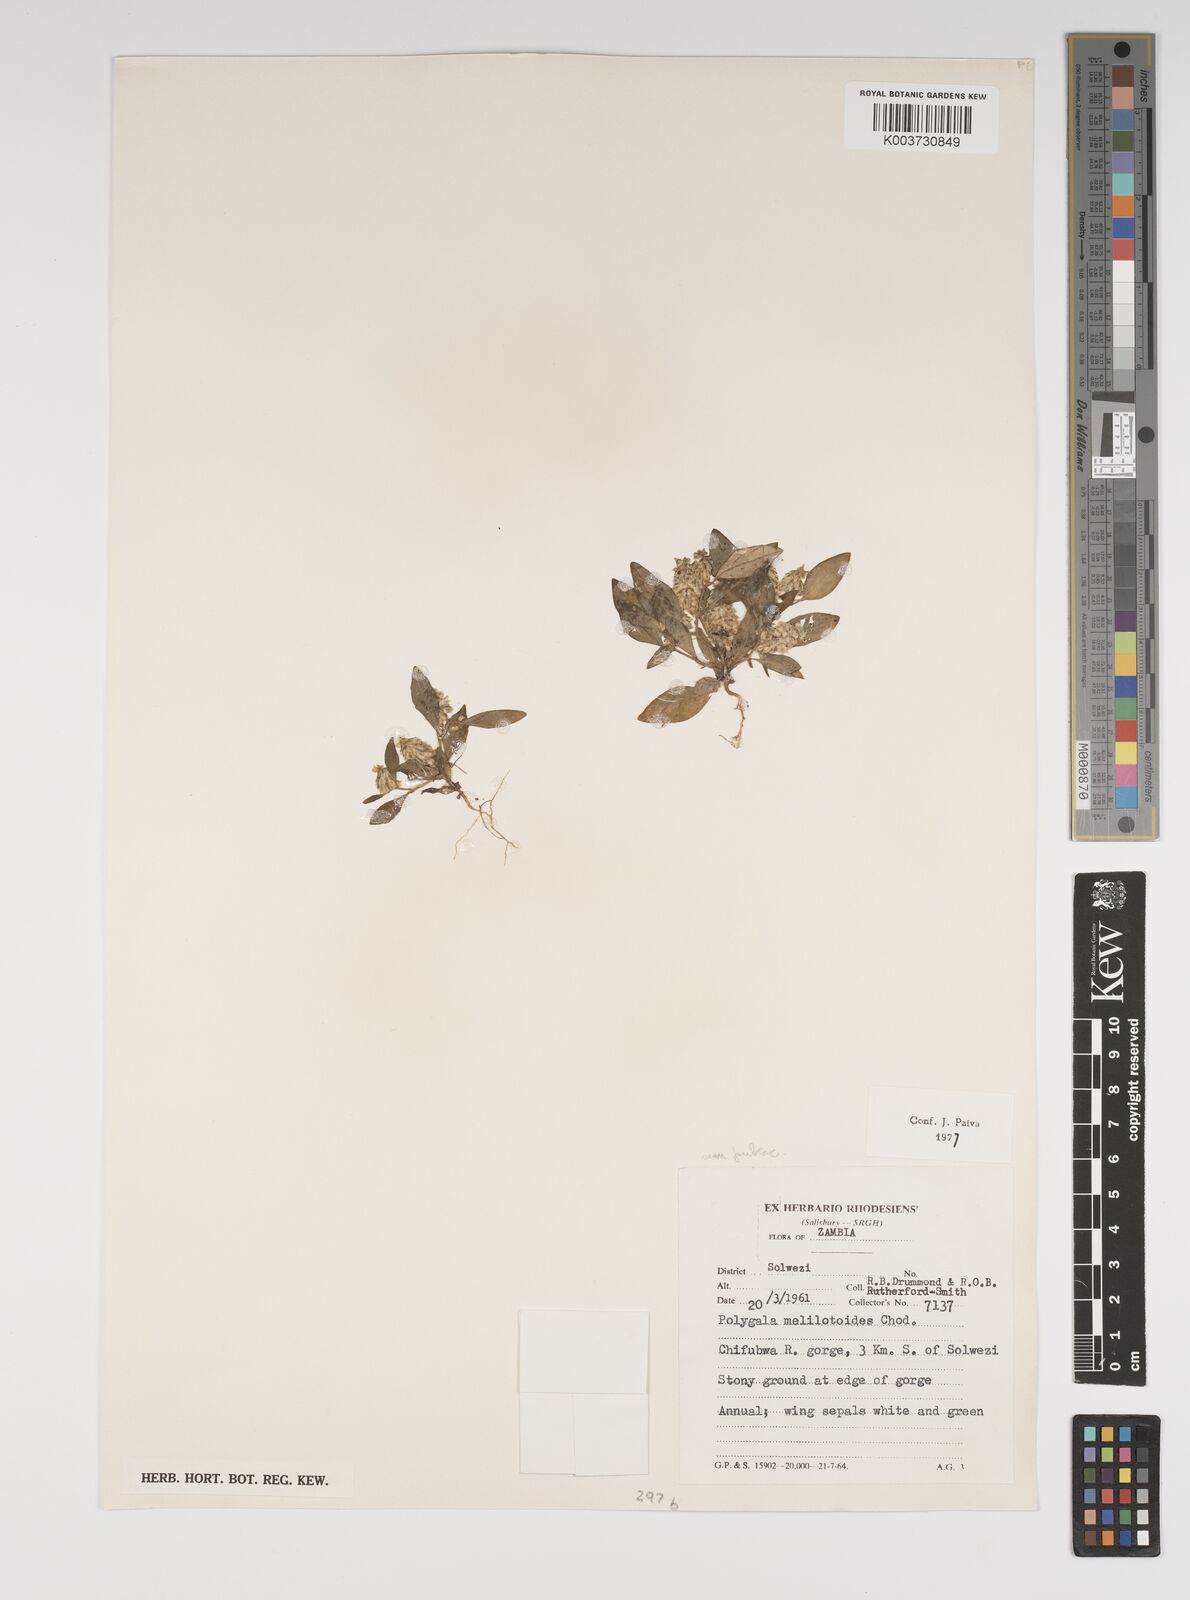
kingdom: Plantae
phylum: Tracheophyta
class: Magnoliopsida
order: Fabales
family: Polygalaceae
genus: Polygala
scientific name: Polygala melilotoides
